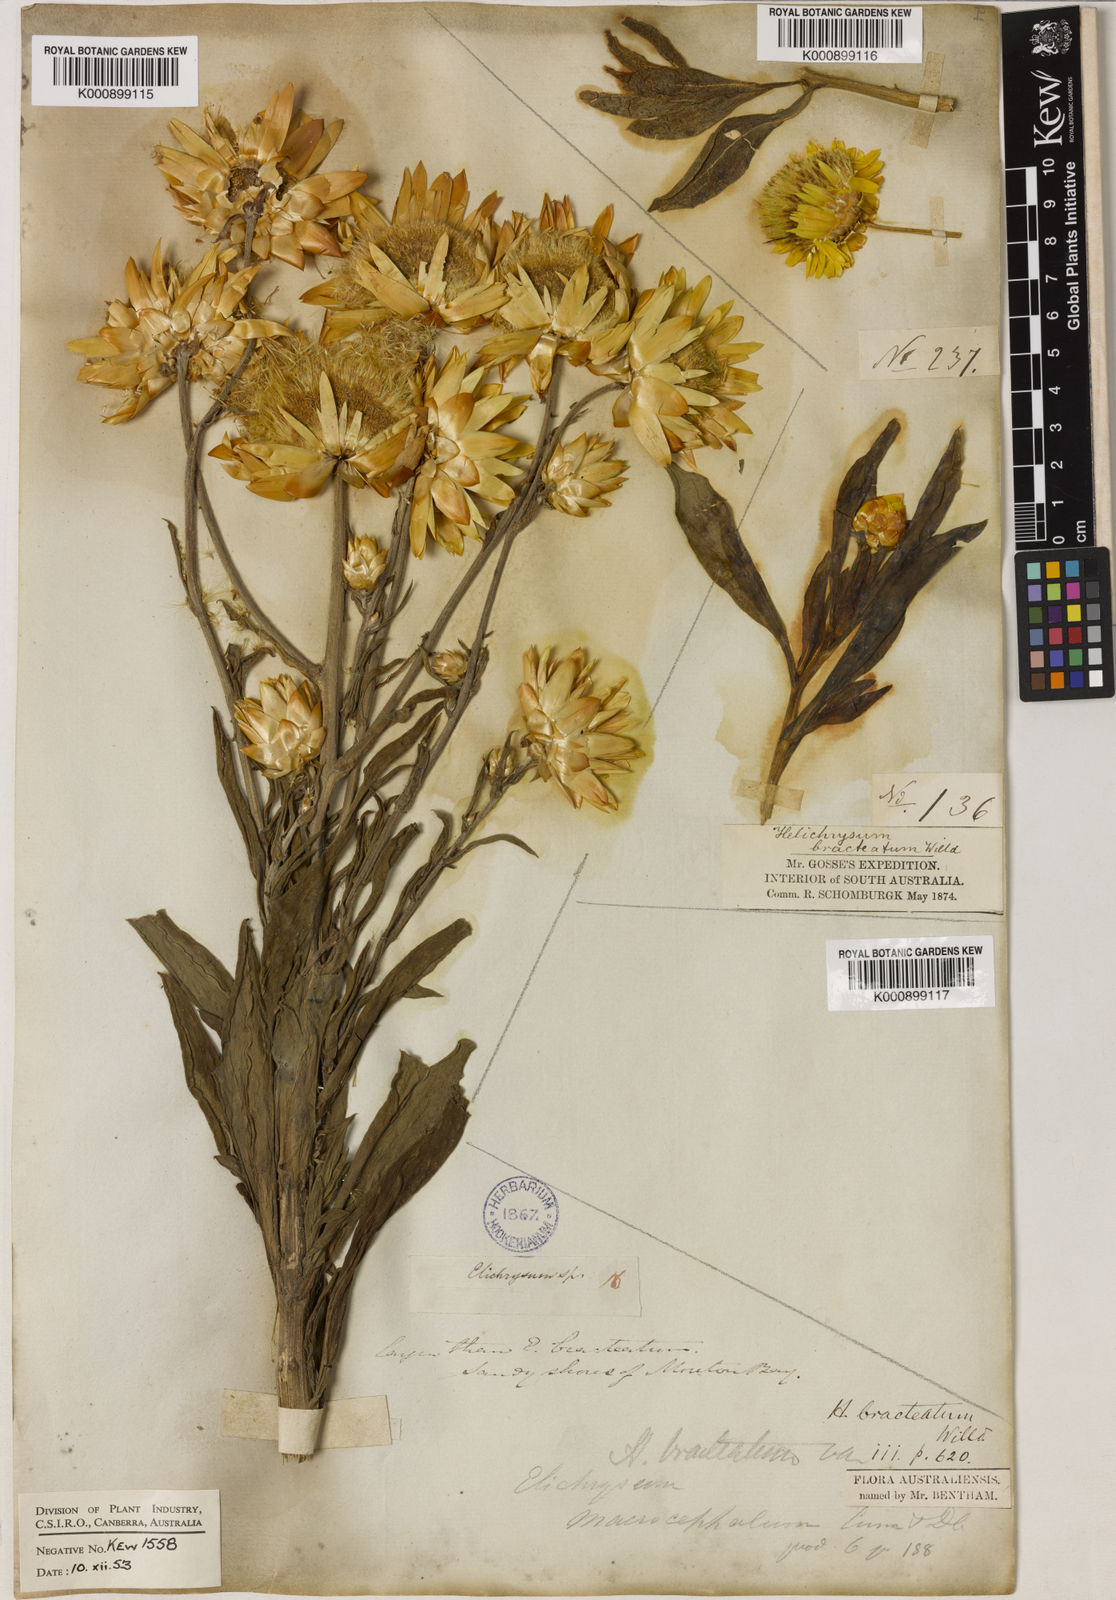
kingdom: Plantae
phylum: Tracheophyta
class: Magnoliopsida
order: Asterales
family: Asteraceae
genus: Xerochrysum
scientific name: Xerochrysum bracteatum
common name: Bracted strawflower
